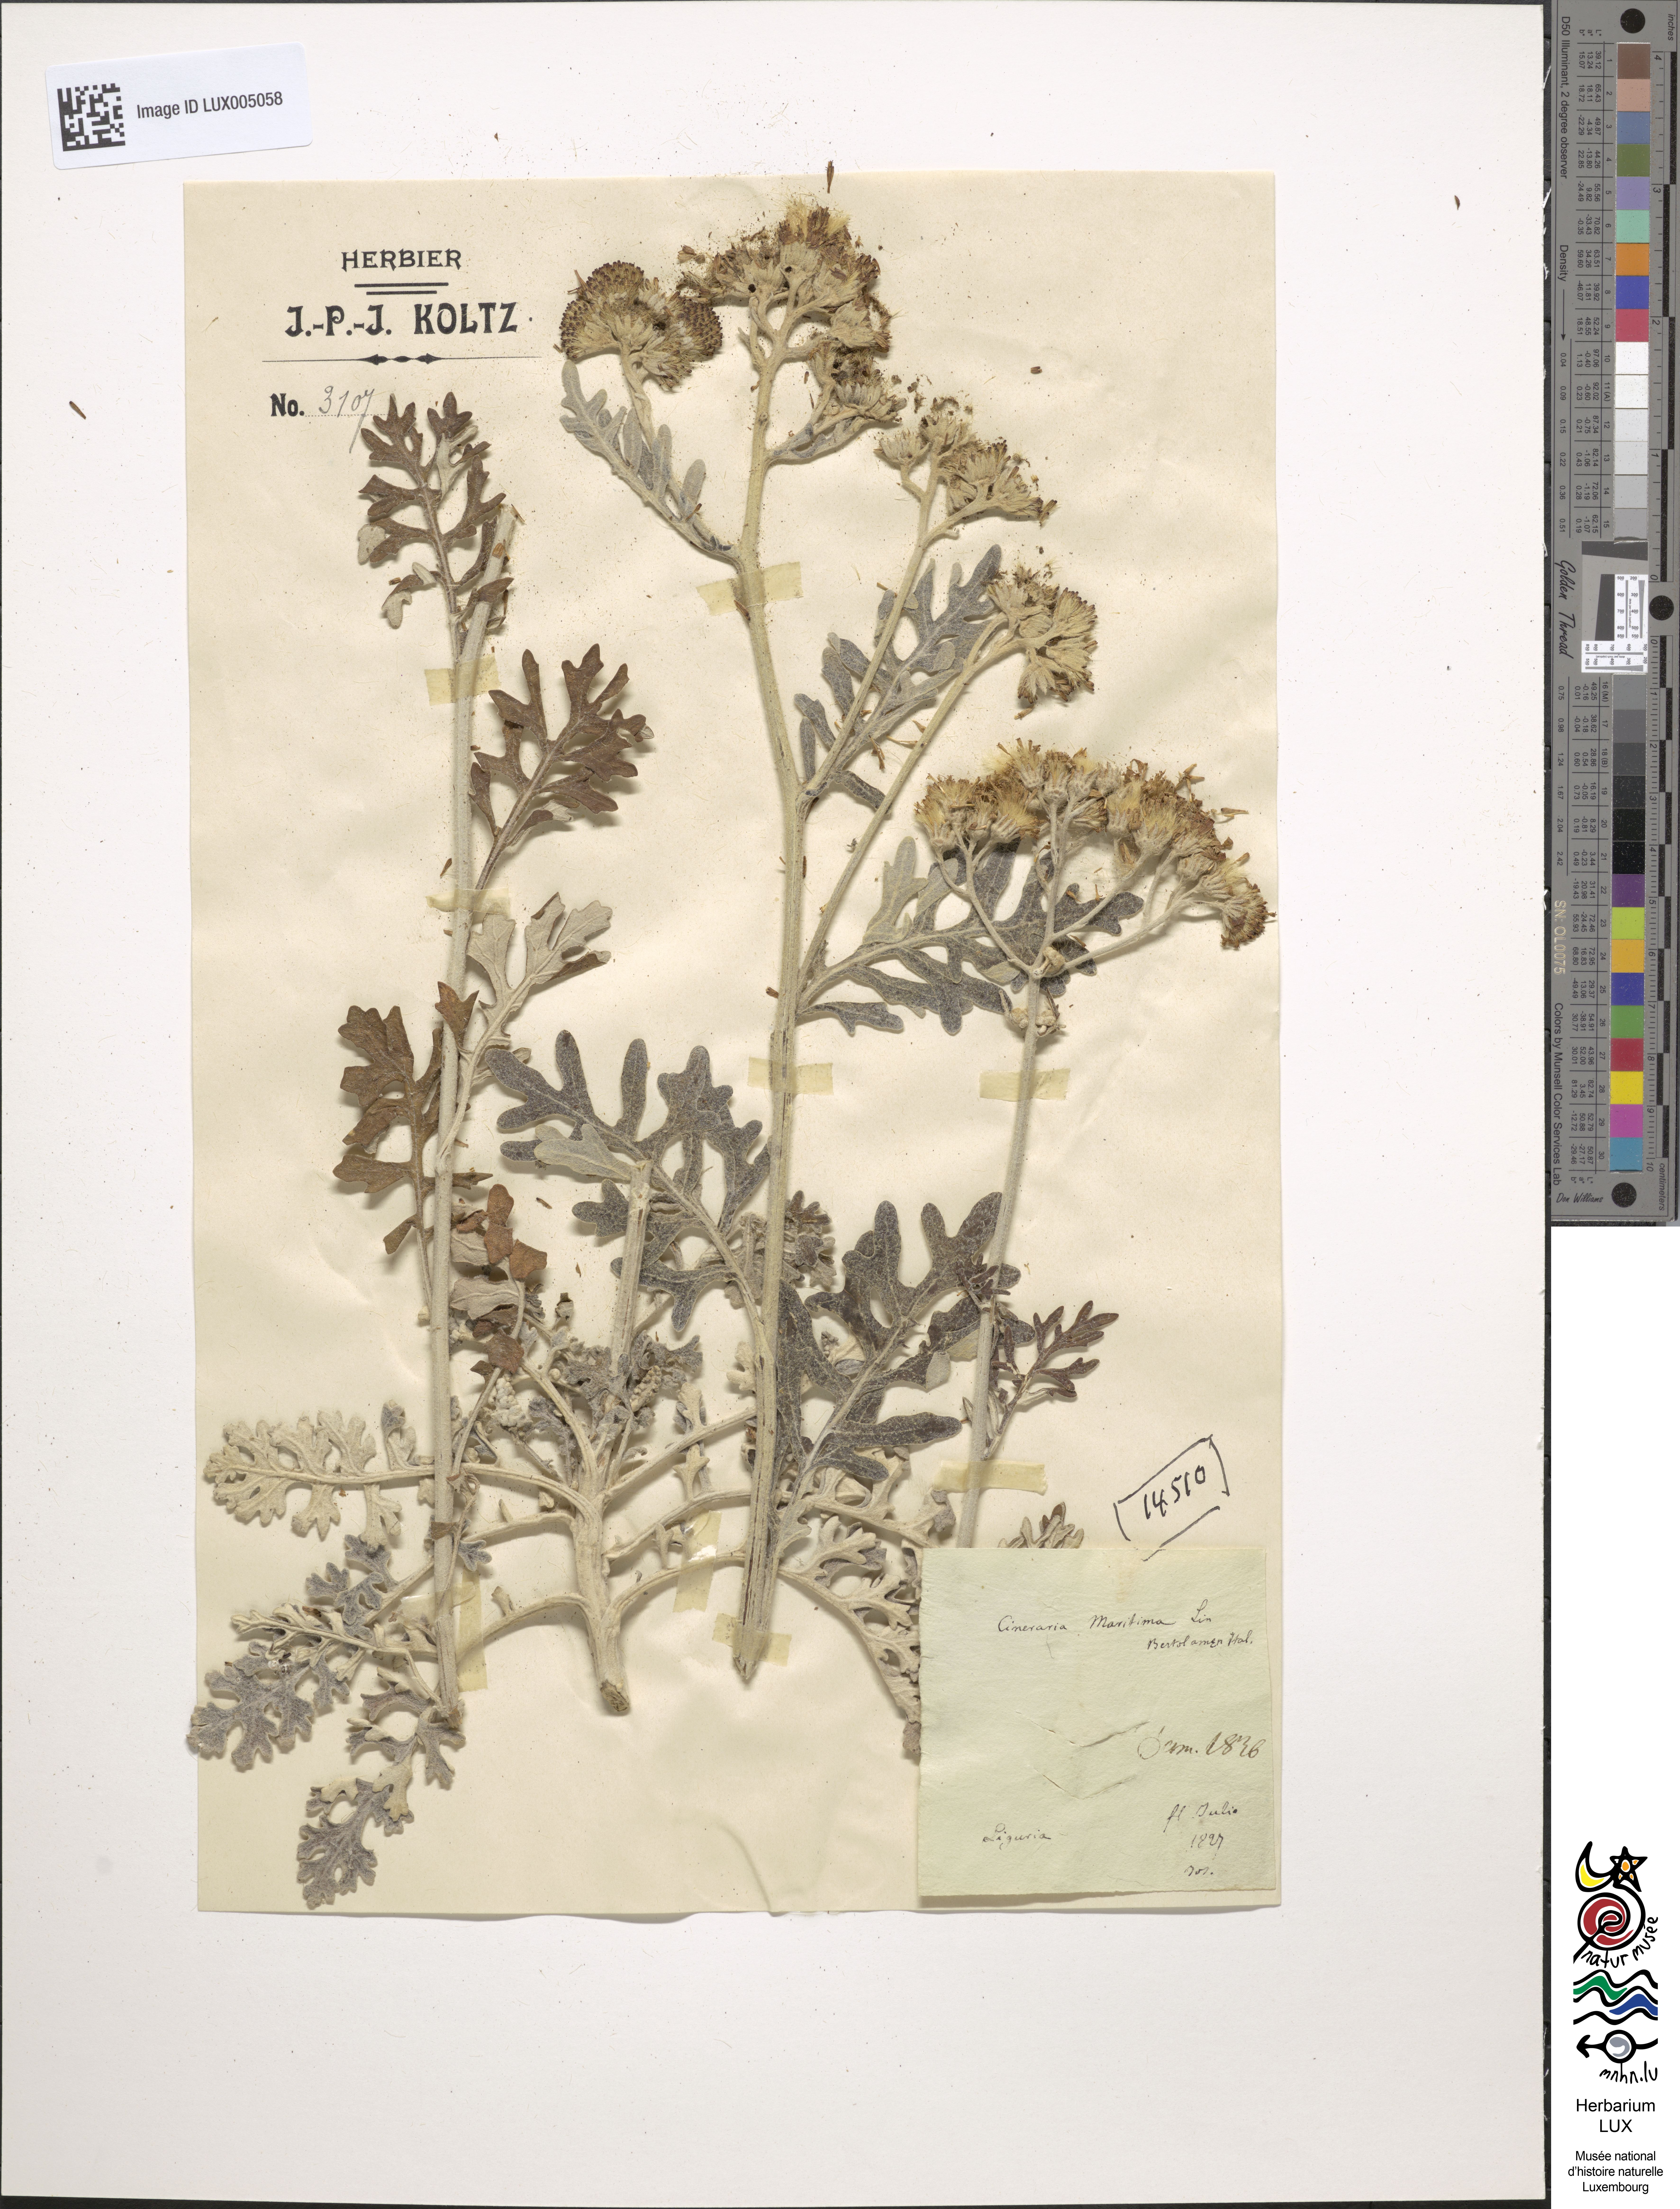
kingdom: Plantae
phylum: Tracheophyta
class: Magnoliopsida
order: Asterales
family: Asteraceae
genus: Jacobaea
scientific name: Jacobaea maritima
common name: Silver ragwort
